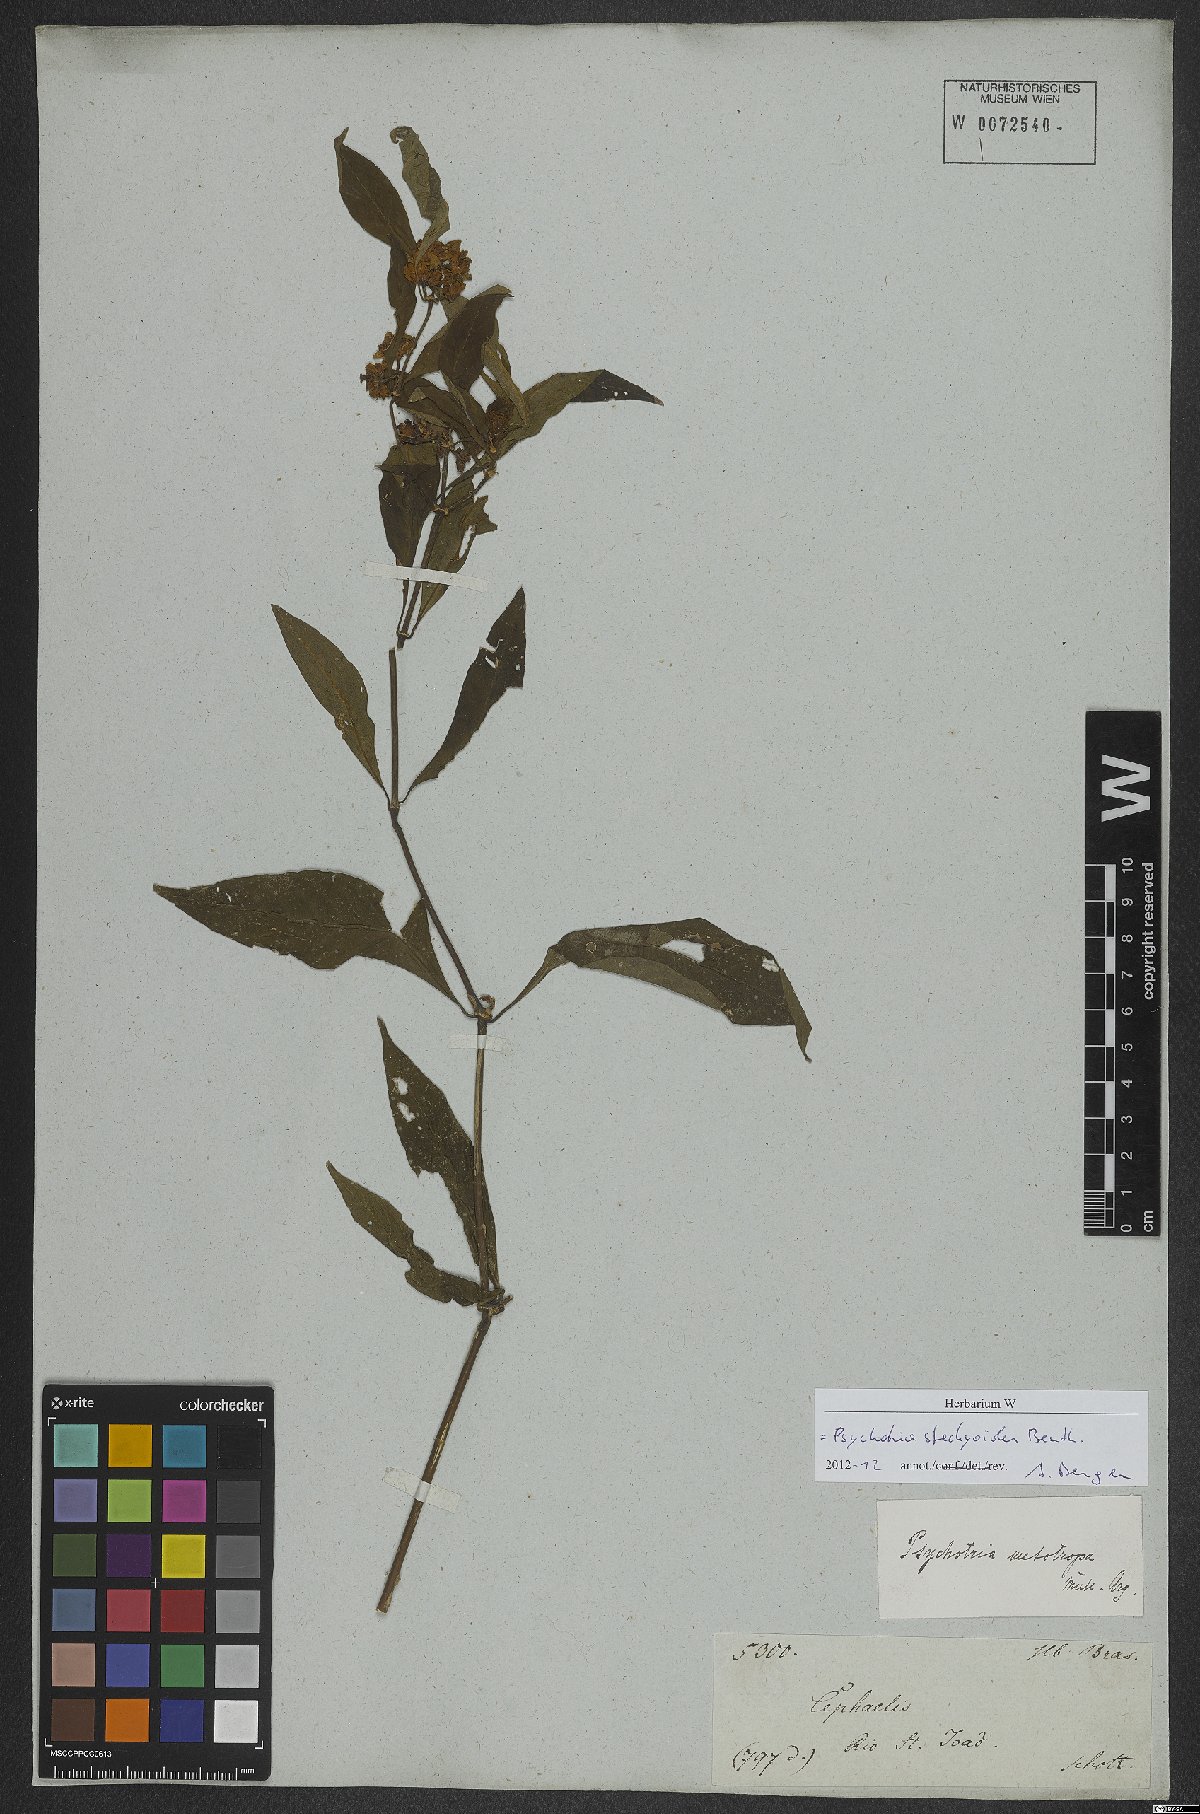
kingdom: Plantae
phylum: Tracheophyta
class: Magnoliopsida
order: Gentianales
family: Rubiaceae
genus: Psychotria
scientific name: Psychotria stachyoides
